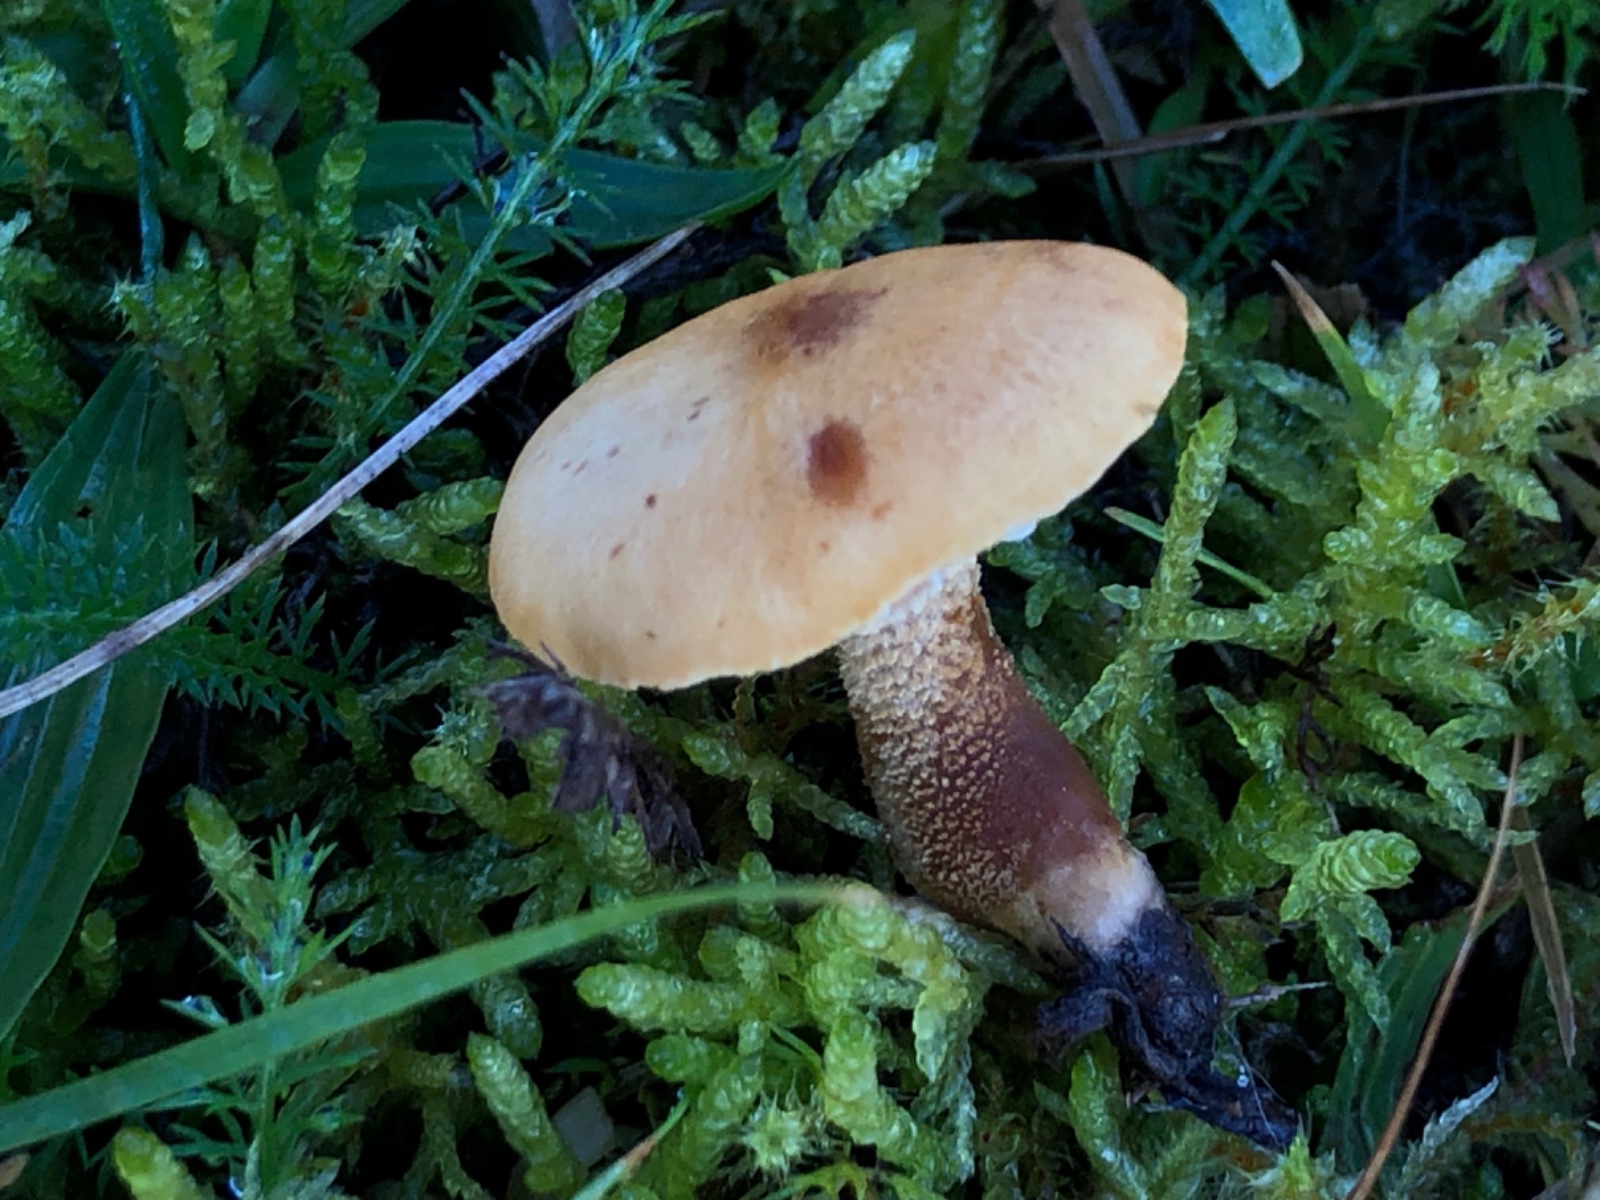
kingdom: Fungi
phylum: Basidiomycota
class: Agaricomycetes
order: Agaricales
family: Tricholomataceae
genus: Cystoderma
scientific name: Cystoderma amianthinum
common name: okkergul grynhat
